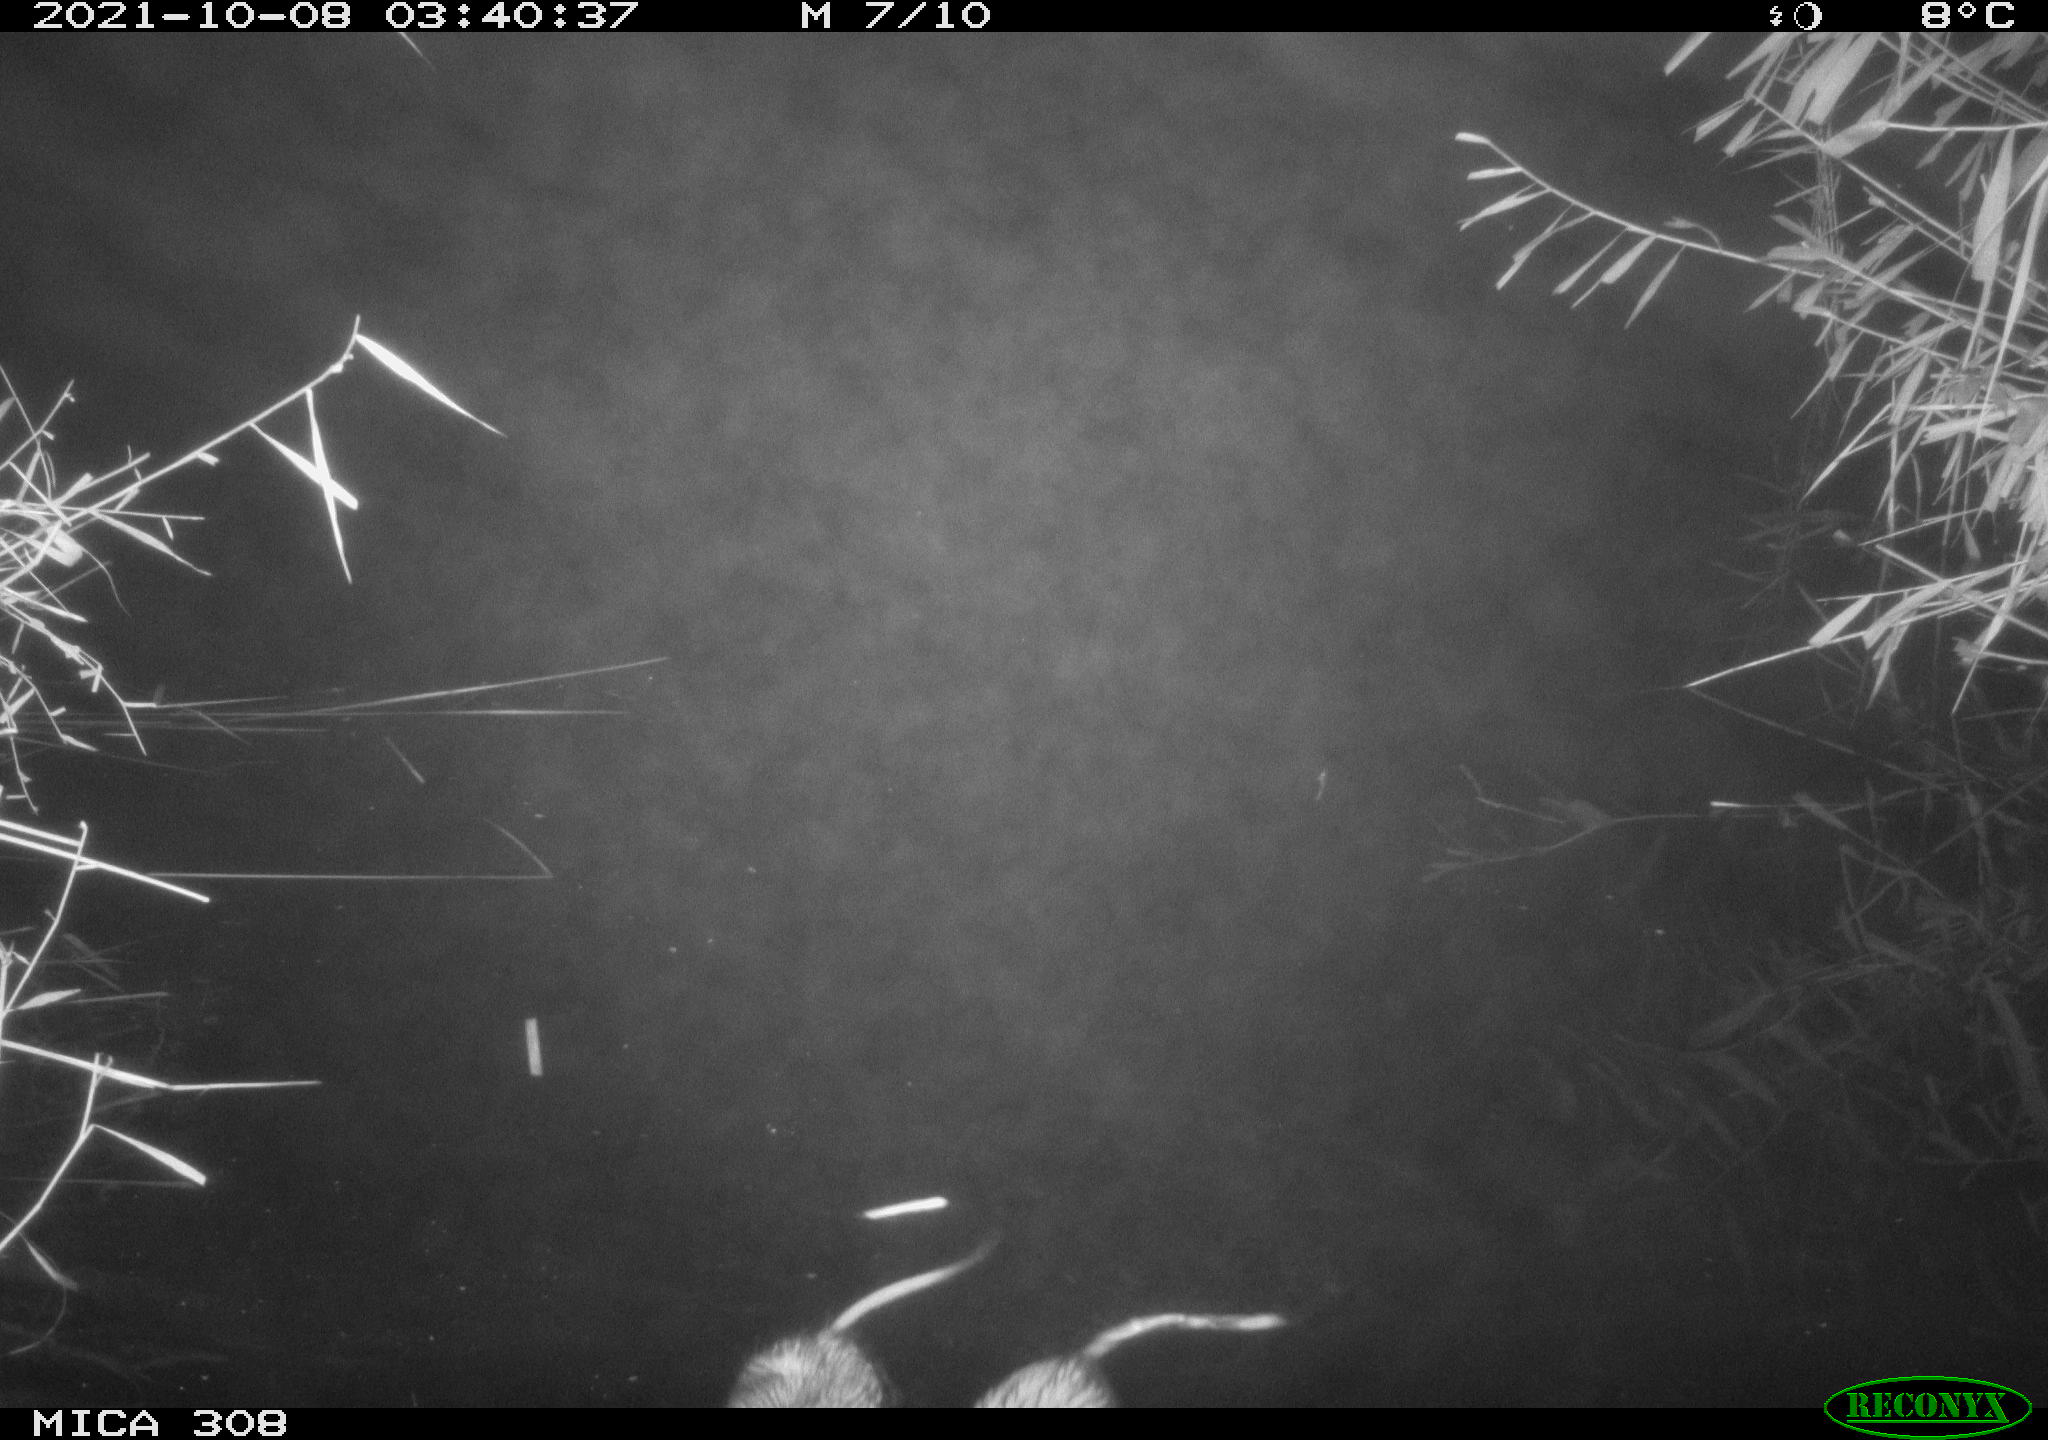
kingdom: Animalia
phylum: Chordata
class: Mammalia
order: Rodentia
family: Cricetidae
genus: Ondatra
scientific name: Ondatra zibethicus
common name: Muskrat
